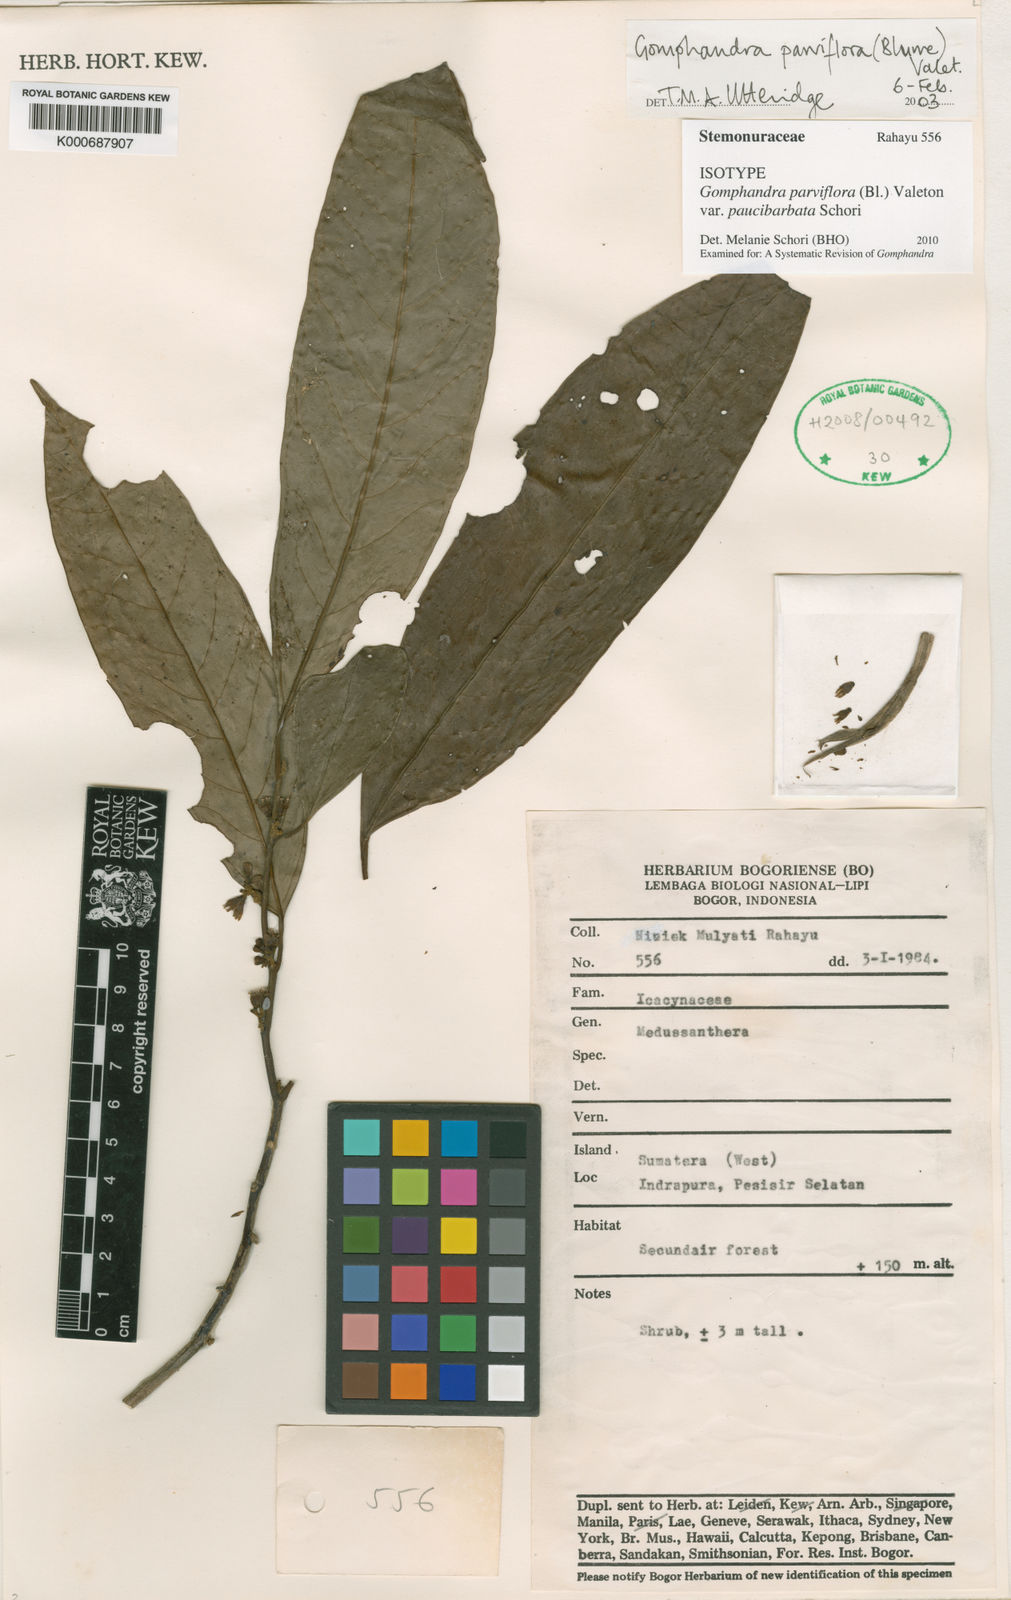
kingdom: Plantae
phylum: Tracheophyta
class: Magnoliopsida
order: Cardiopteridales
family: Stemonuraceae
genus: Gomphandra
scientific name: Gomphandra parviflora
